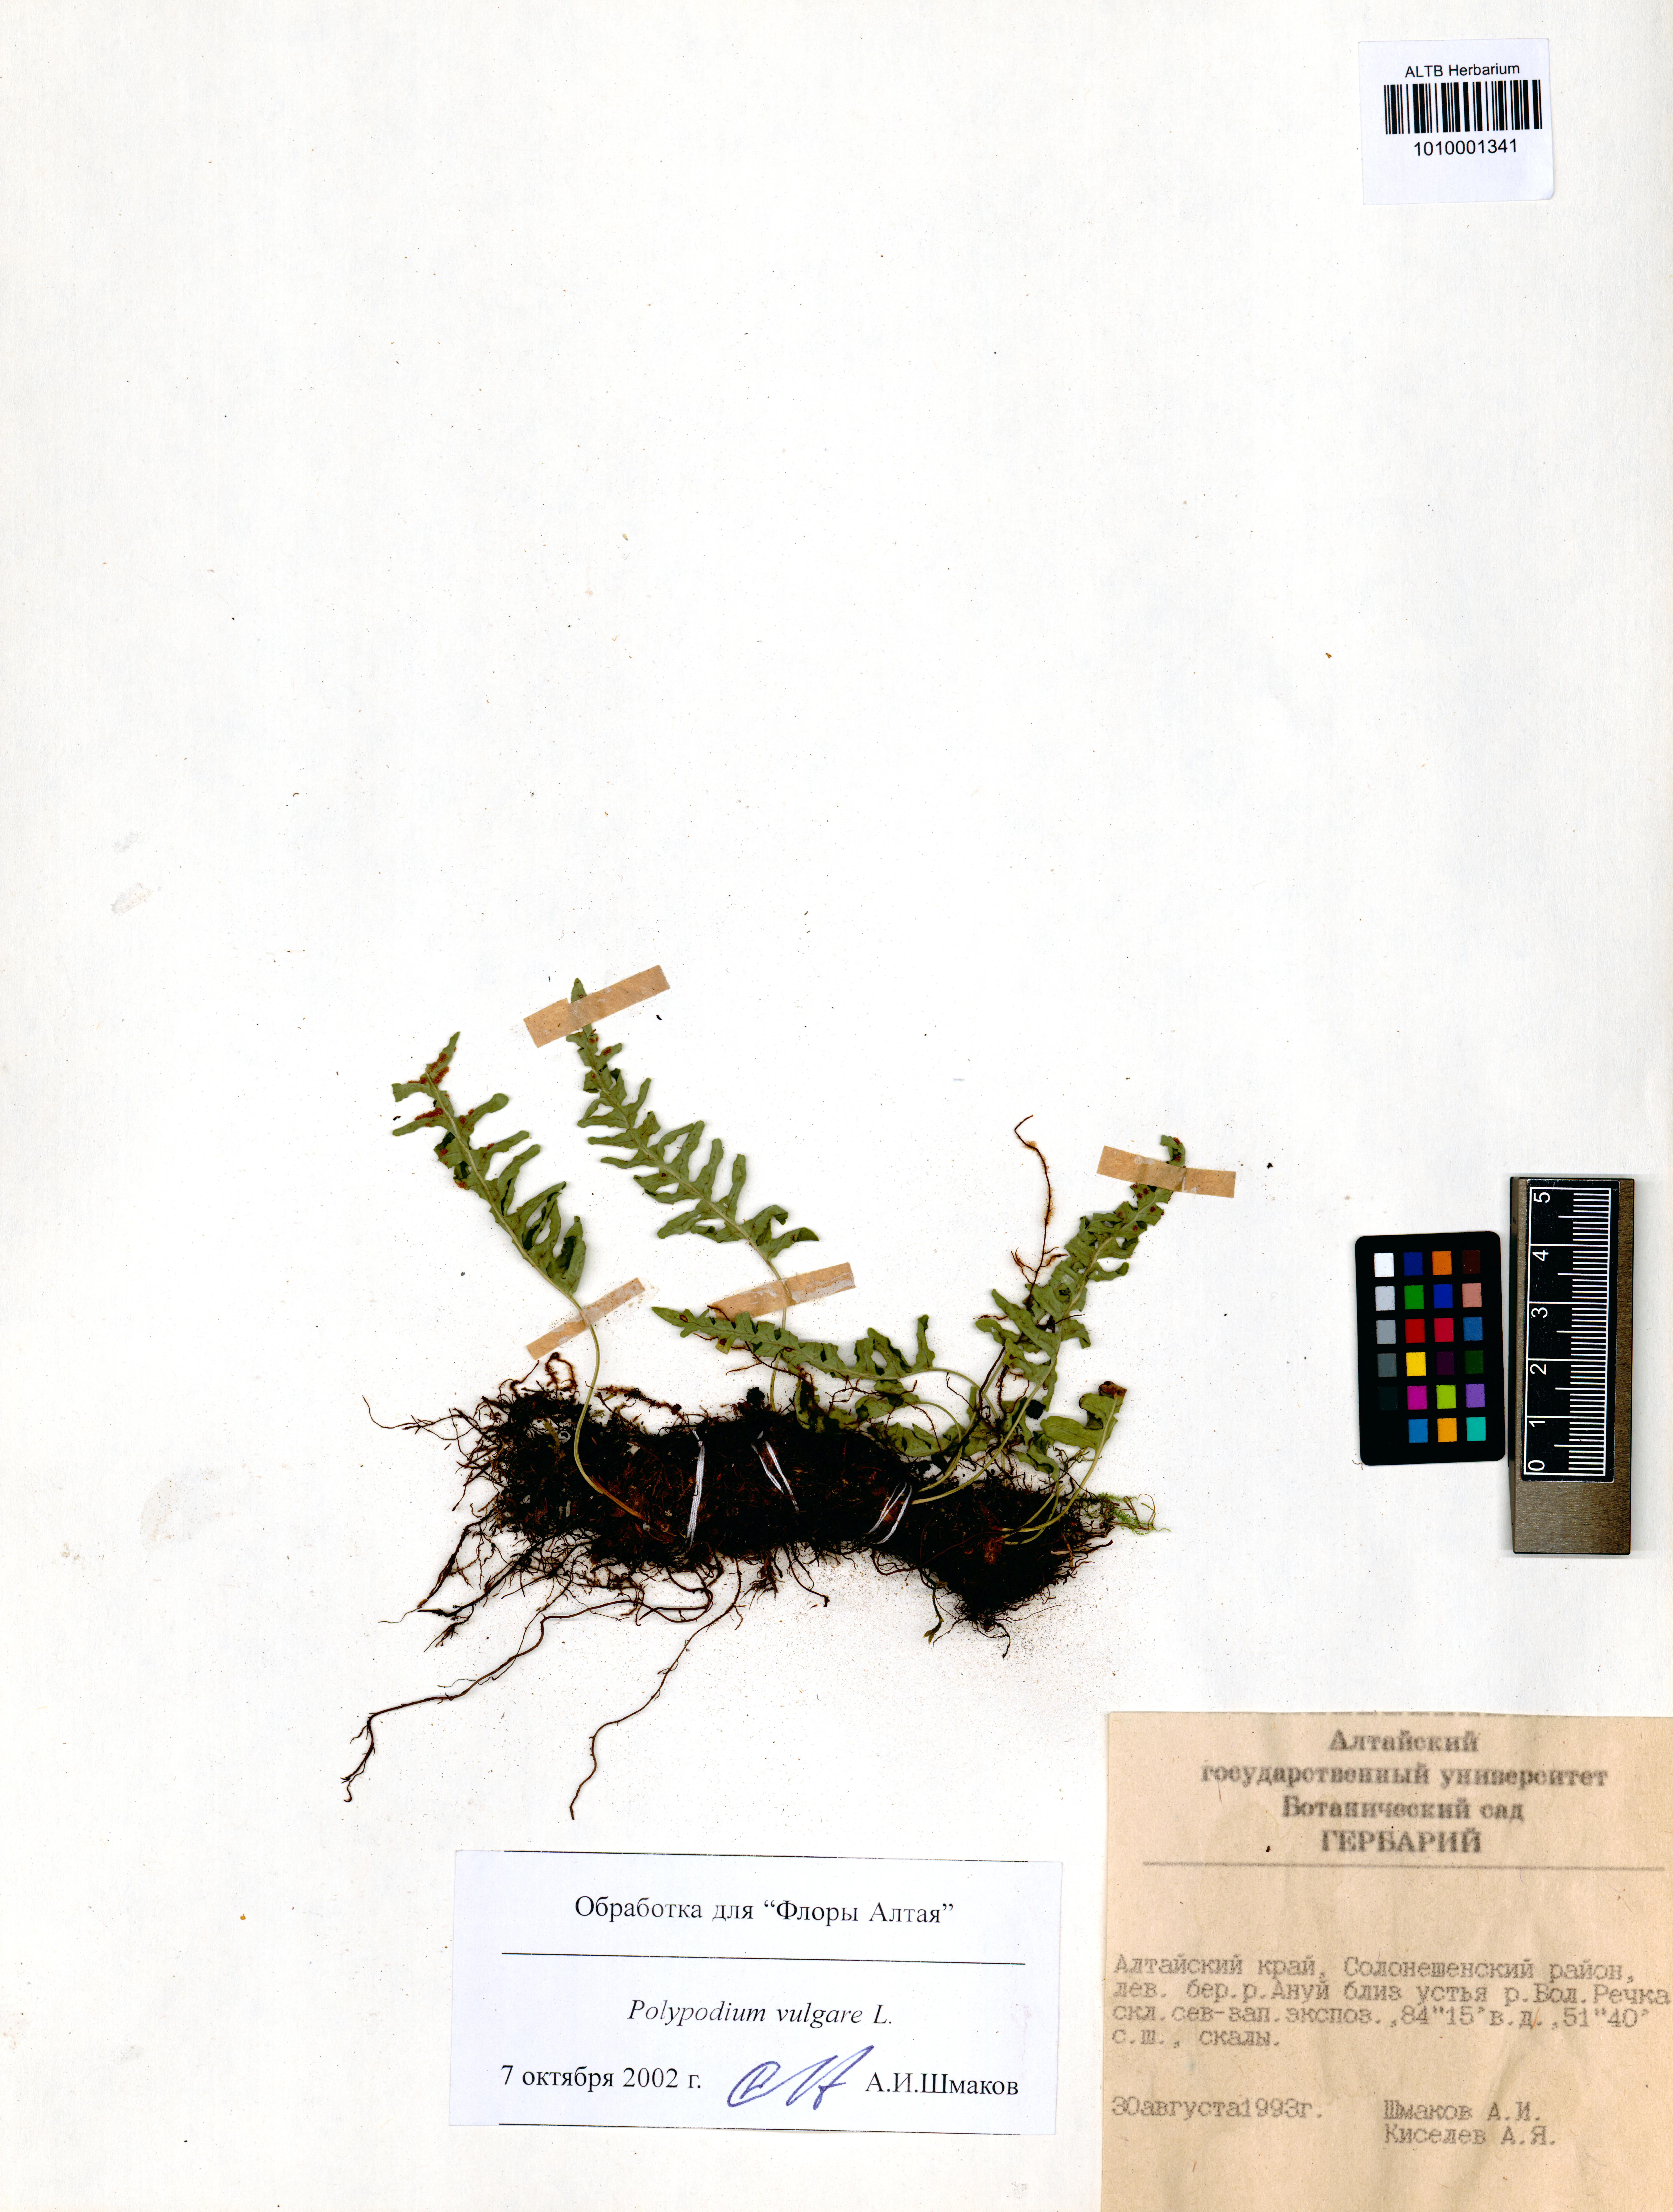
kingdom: Plantae
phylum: Tracheophyta
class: Polypodiopsida
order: Polypodiales
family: Polypodiaceae
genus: Polypodium
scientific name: Polypodium vulgare
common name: Common polypody
